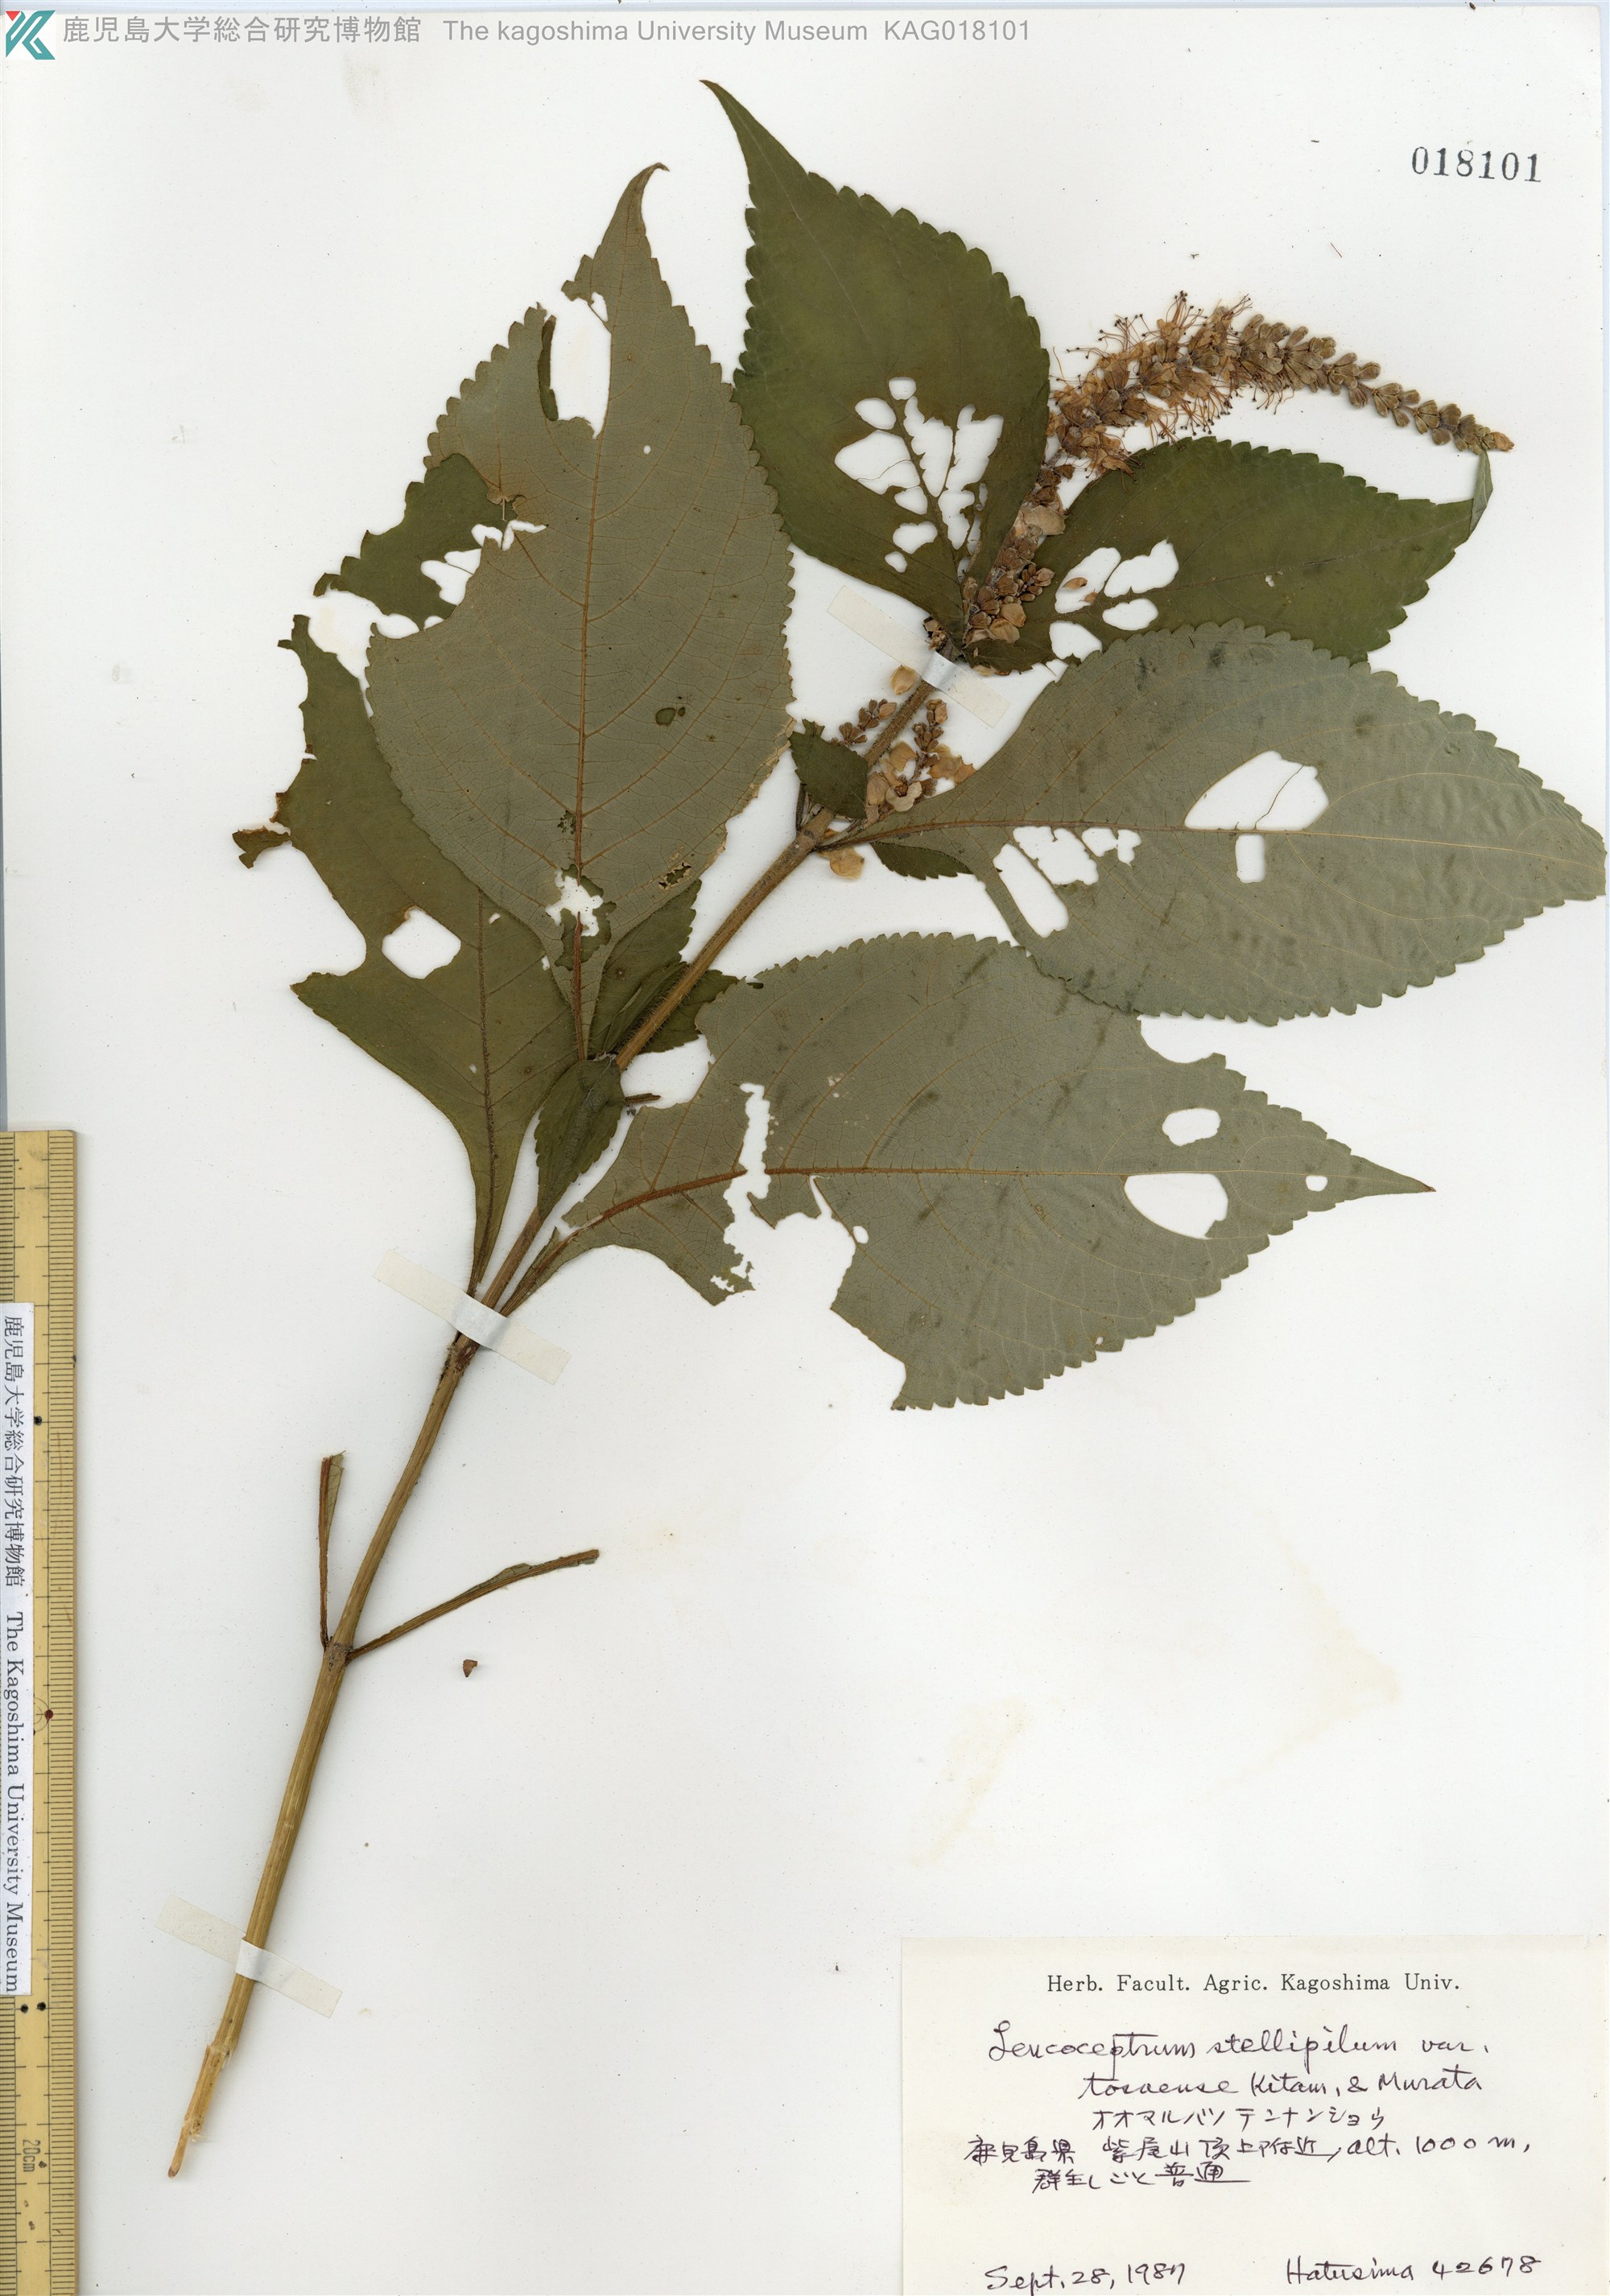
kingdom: Plantae
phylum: Tracheophyta
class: Magnoliopsida
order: Lamiales
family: Lamiaceae
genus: Comanthosphace
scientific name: Comanthosphace japonica
